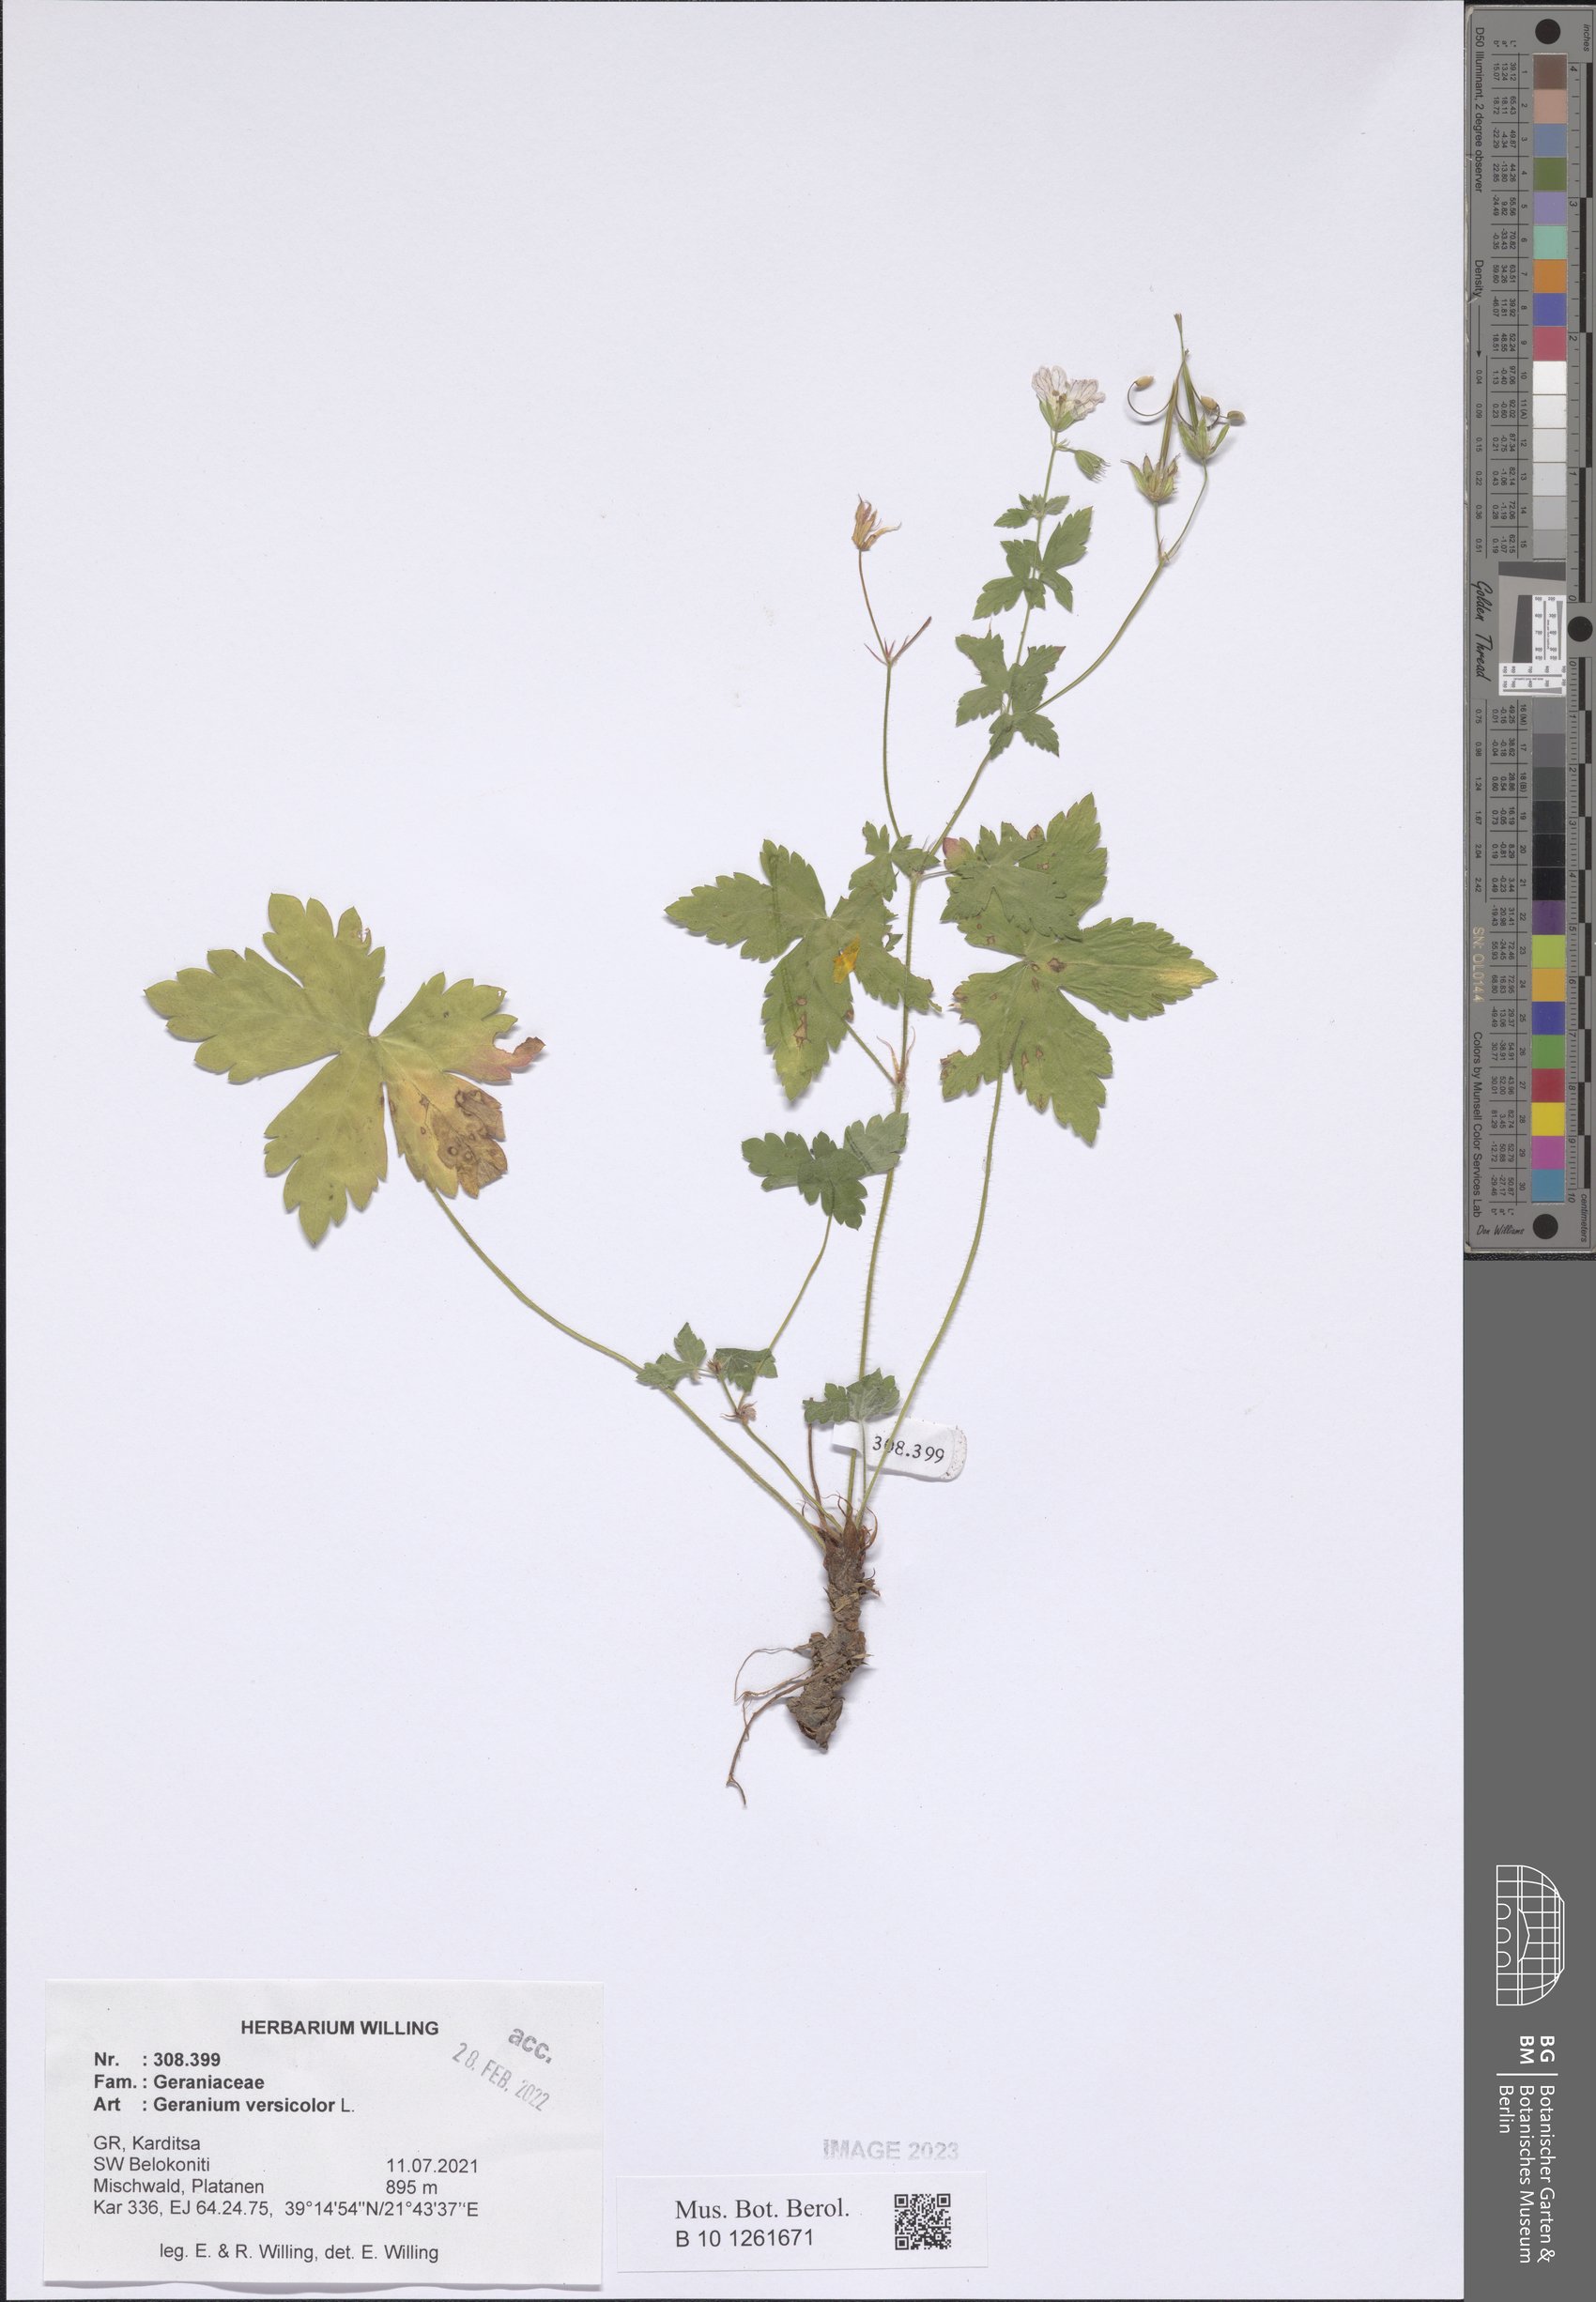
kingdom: Plantae
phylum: Tracheophyta
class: Magnoliopsida
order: Geraniales
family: Geraniaceae
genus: Geranium
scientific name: Geranium versicolor
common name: Pencilled crane's-bill
